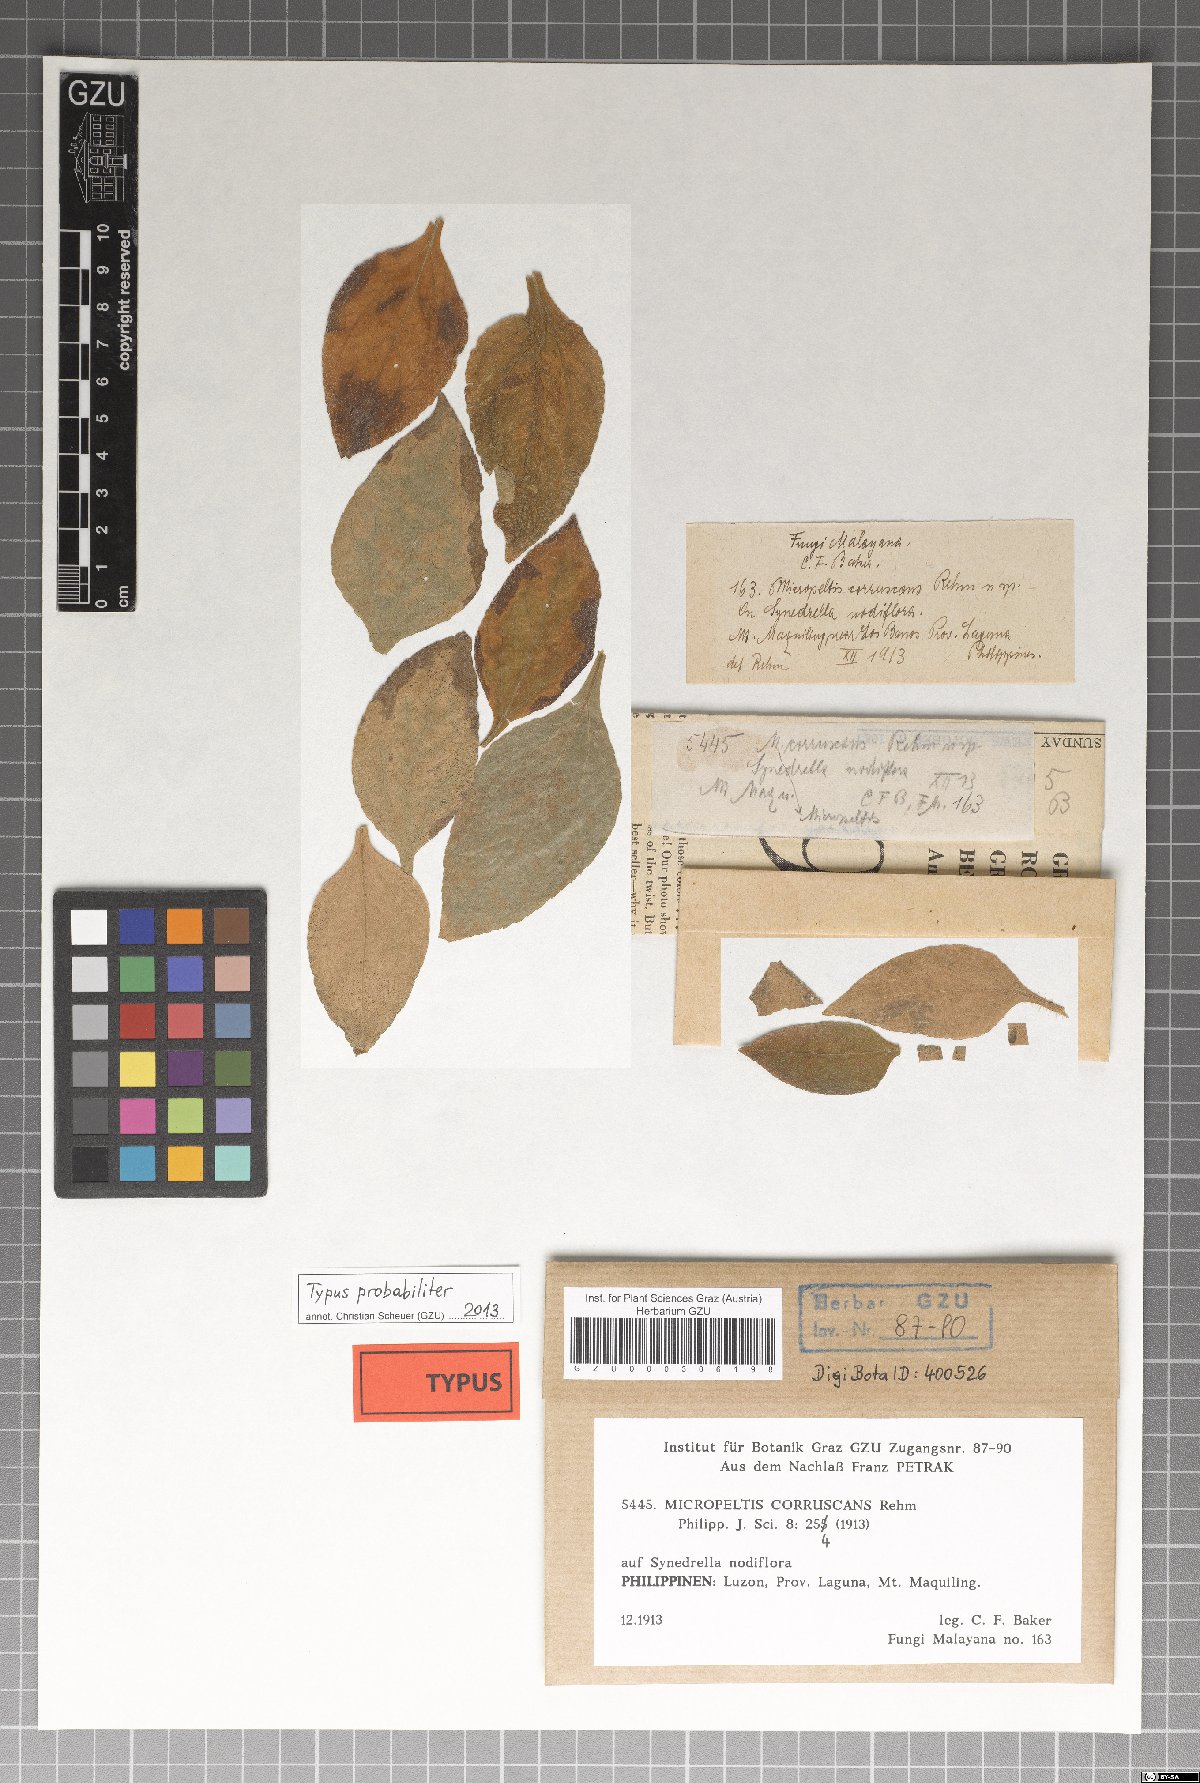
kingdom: Fungi
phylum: Ascomycota
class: Dothideomycetes
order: Microthyriales
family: Microthyriaceae
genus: Phragmaspidium
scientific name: Phragmaspidium corruscans
